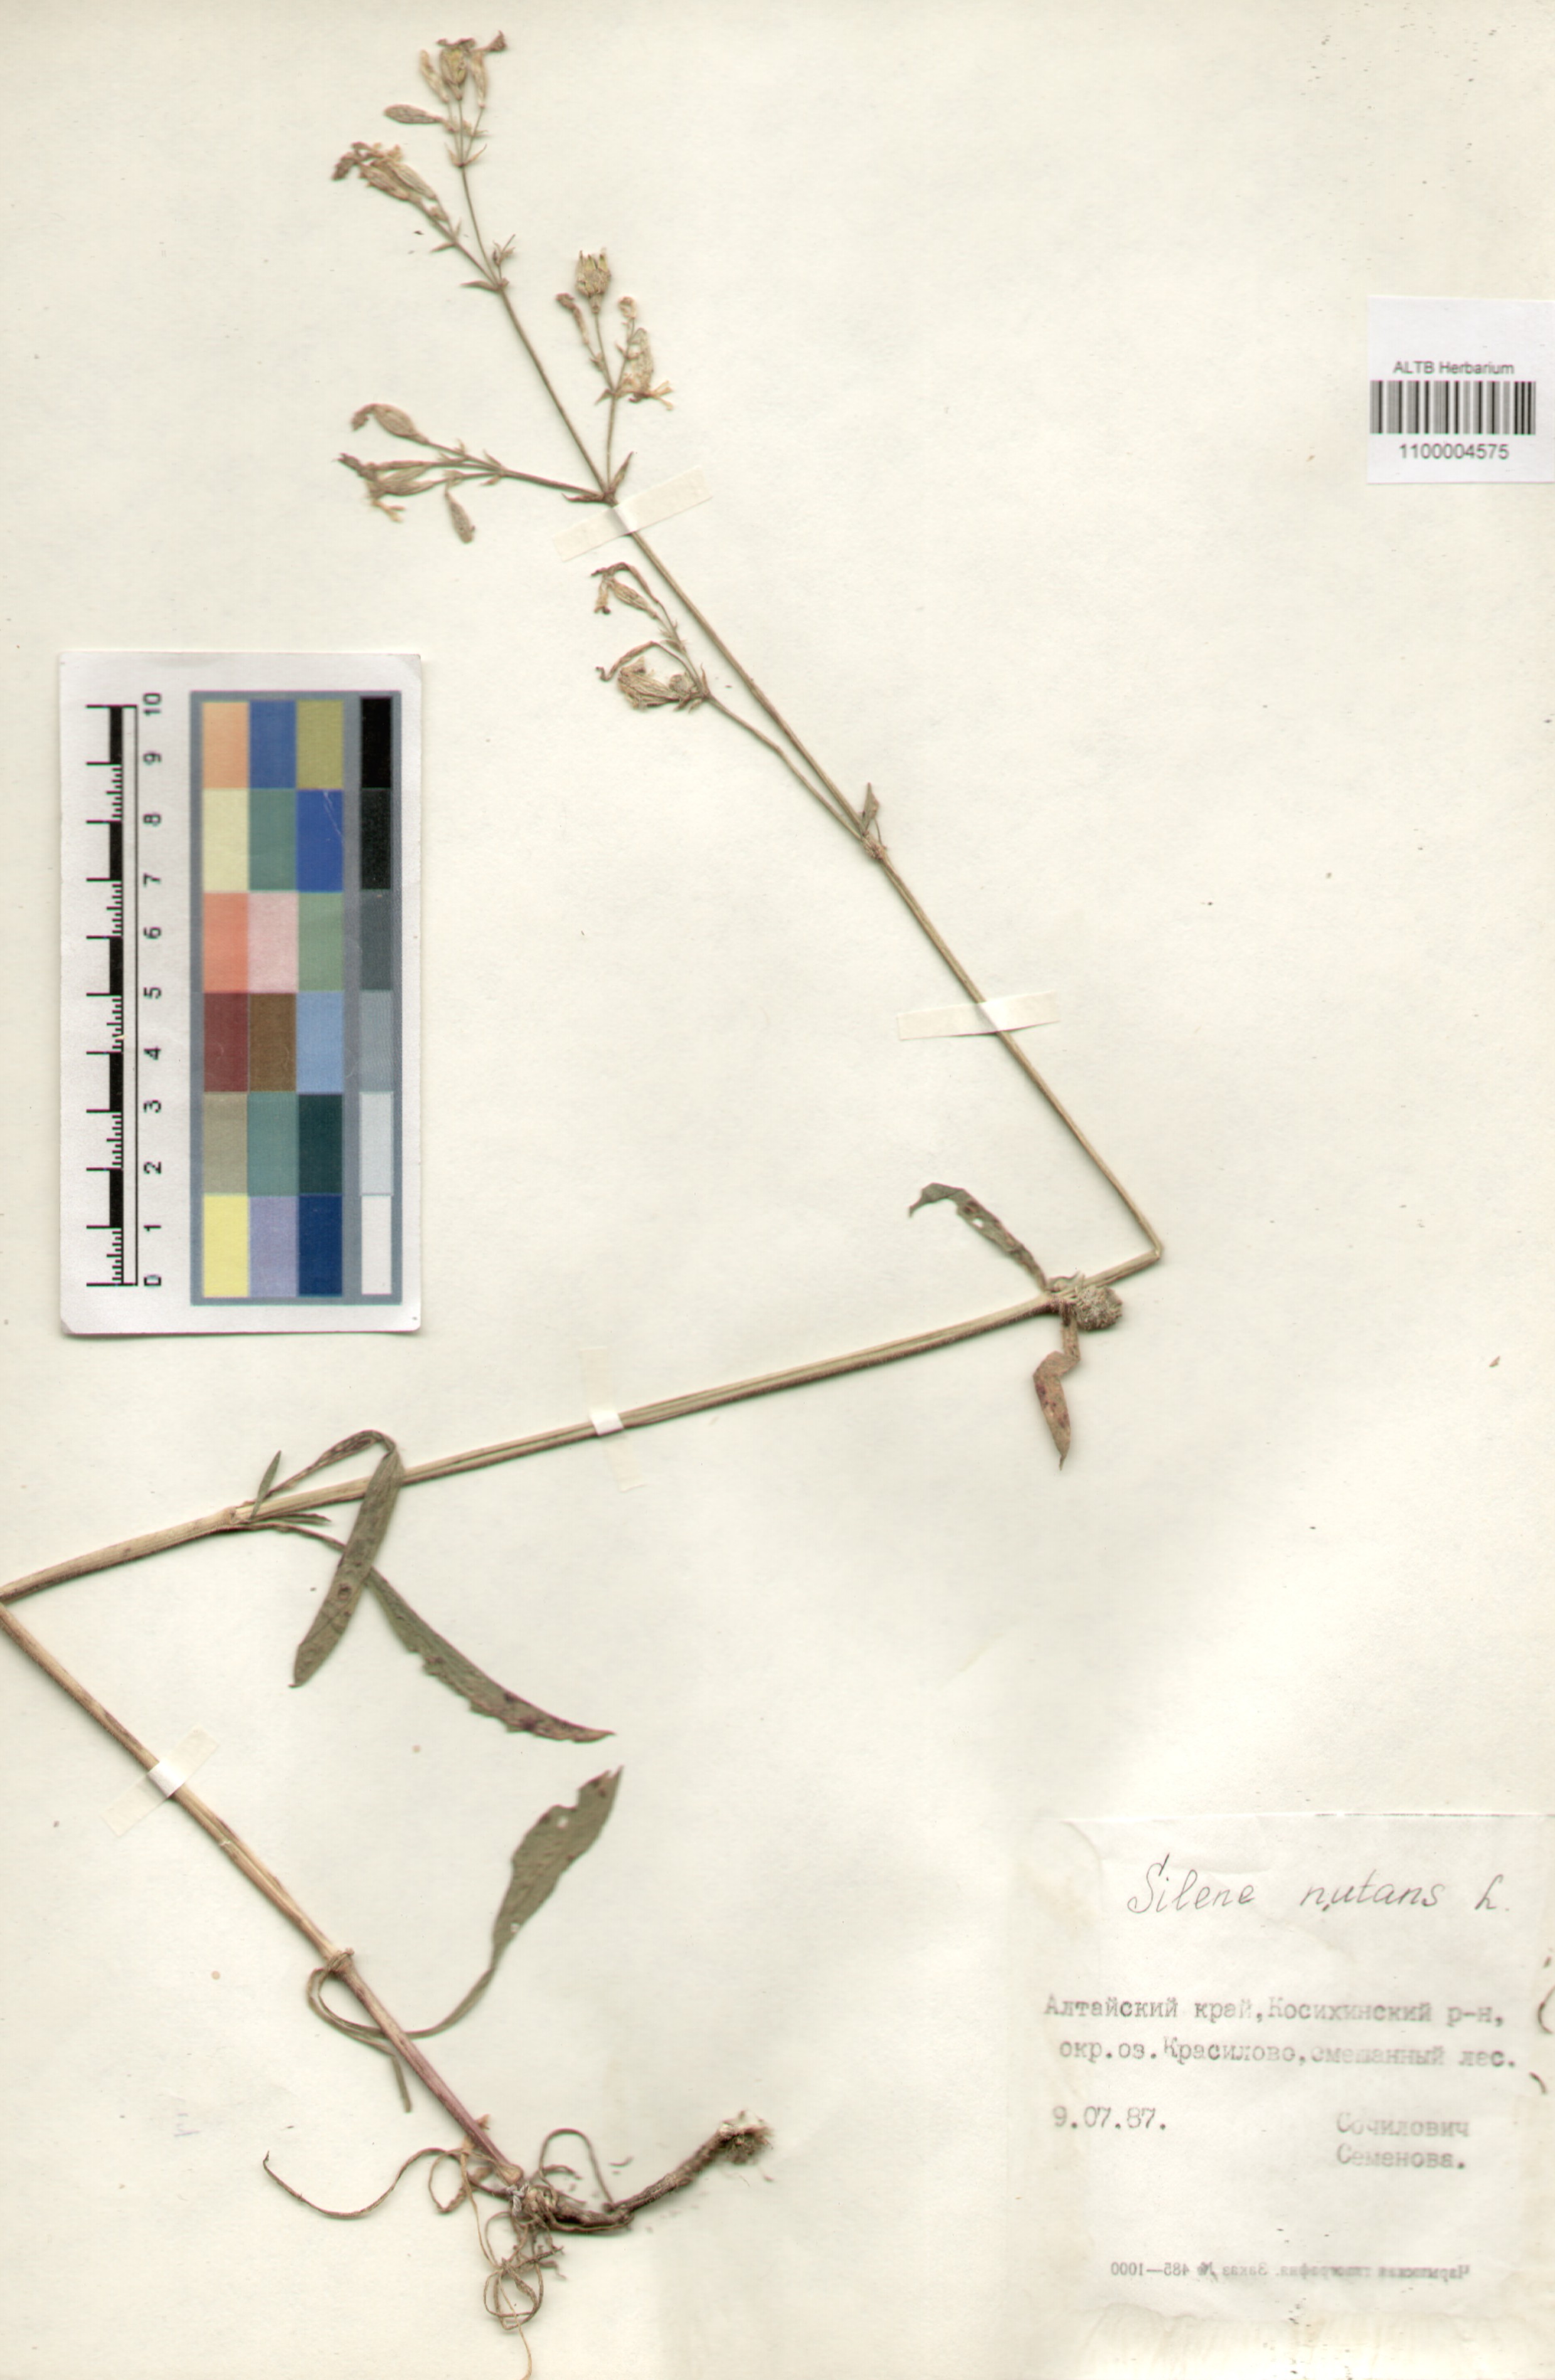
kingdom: Plantae
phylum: Tracheophyta
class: Magnoliopsida
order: Caryophyllales
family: Caryophyllaceae
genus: Silene
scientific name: Silene nutans
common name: Nottingham catchfly
